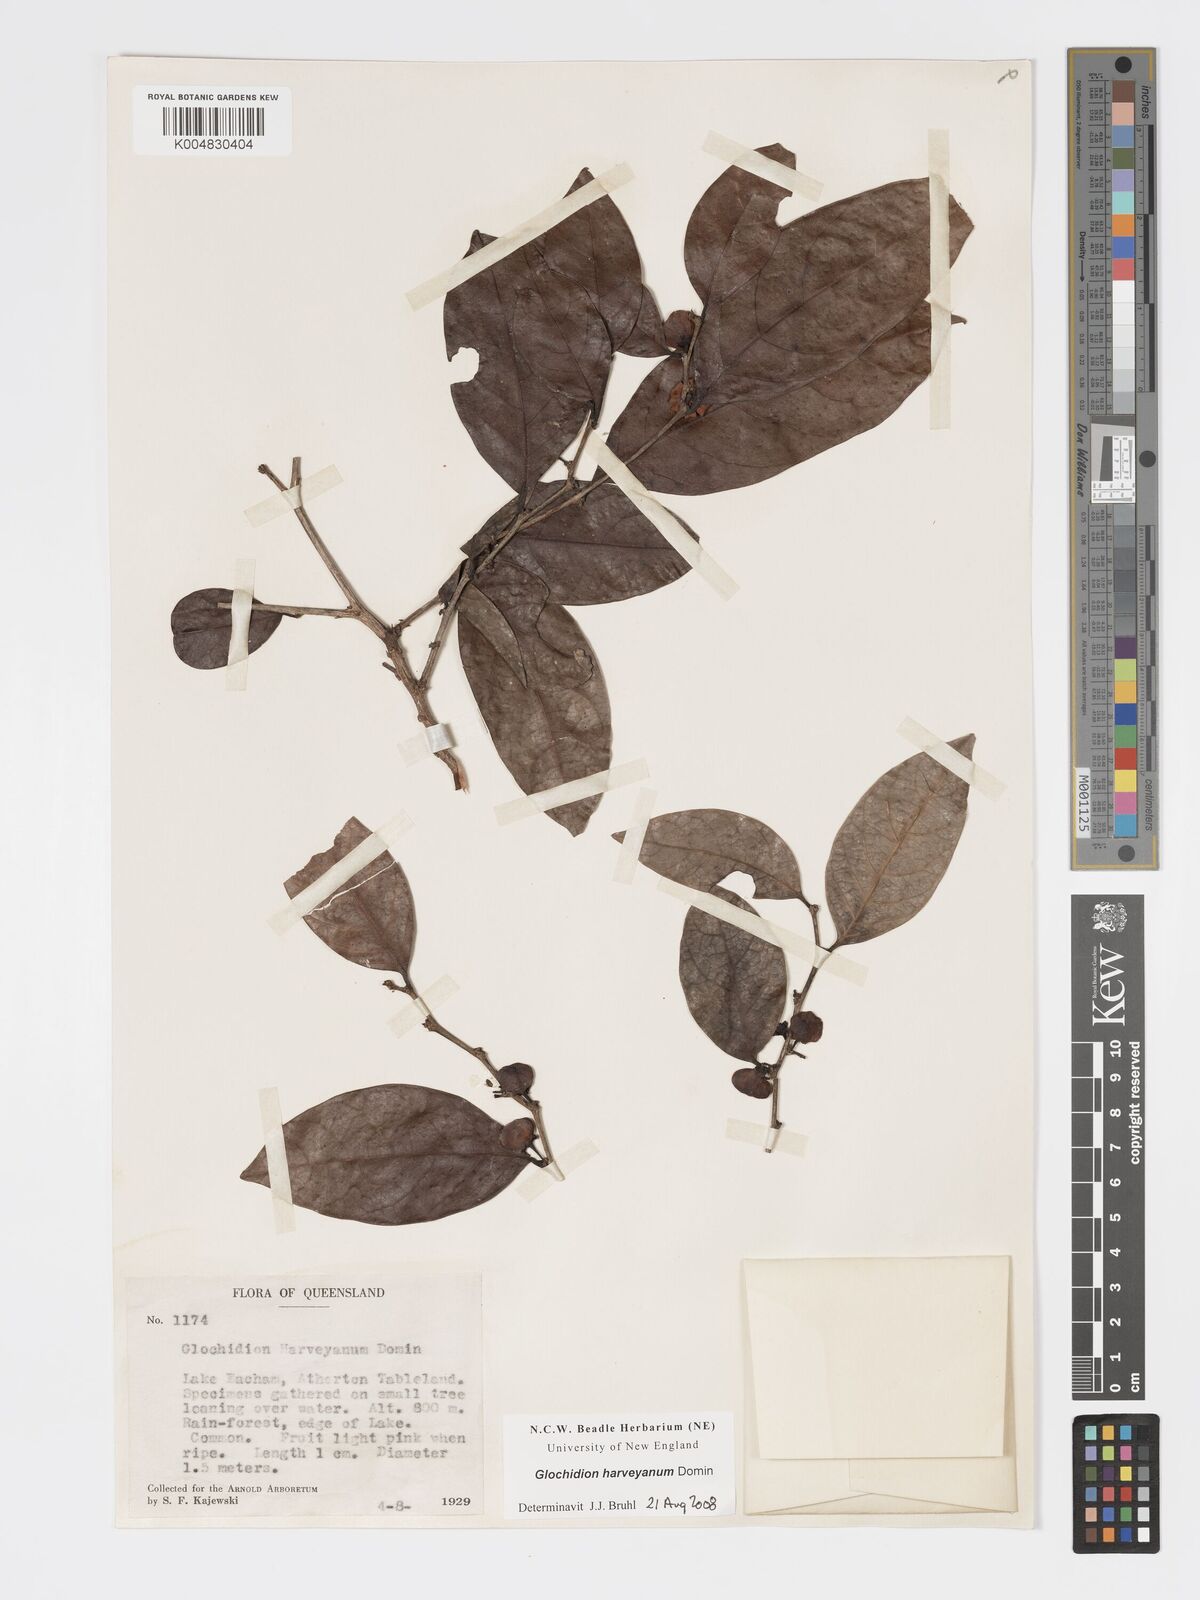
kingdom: Plantae
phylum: Tracheophyta
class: Magnoliopsida
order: Malpighiales
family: Phyllanthaceae
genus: Glochidion
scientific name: Glochidion harveyanum
